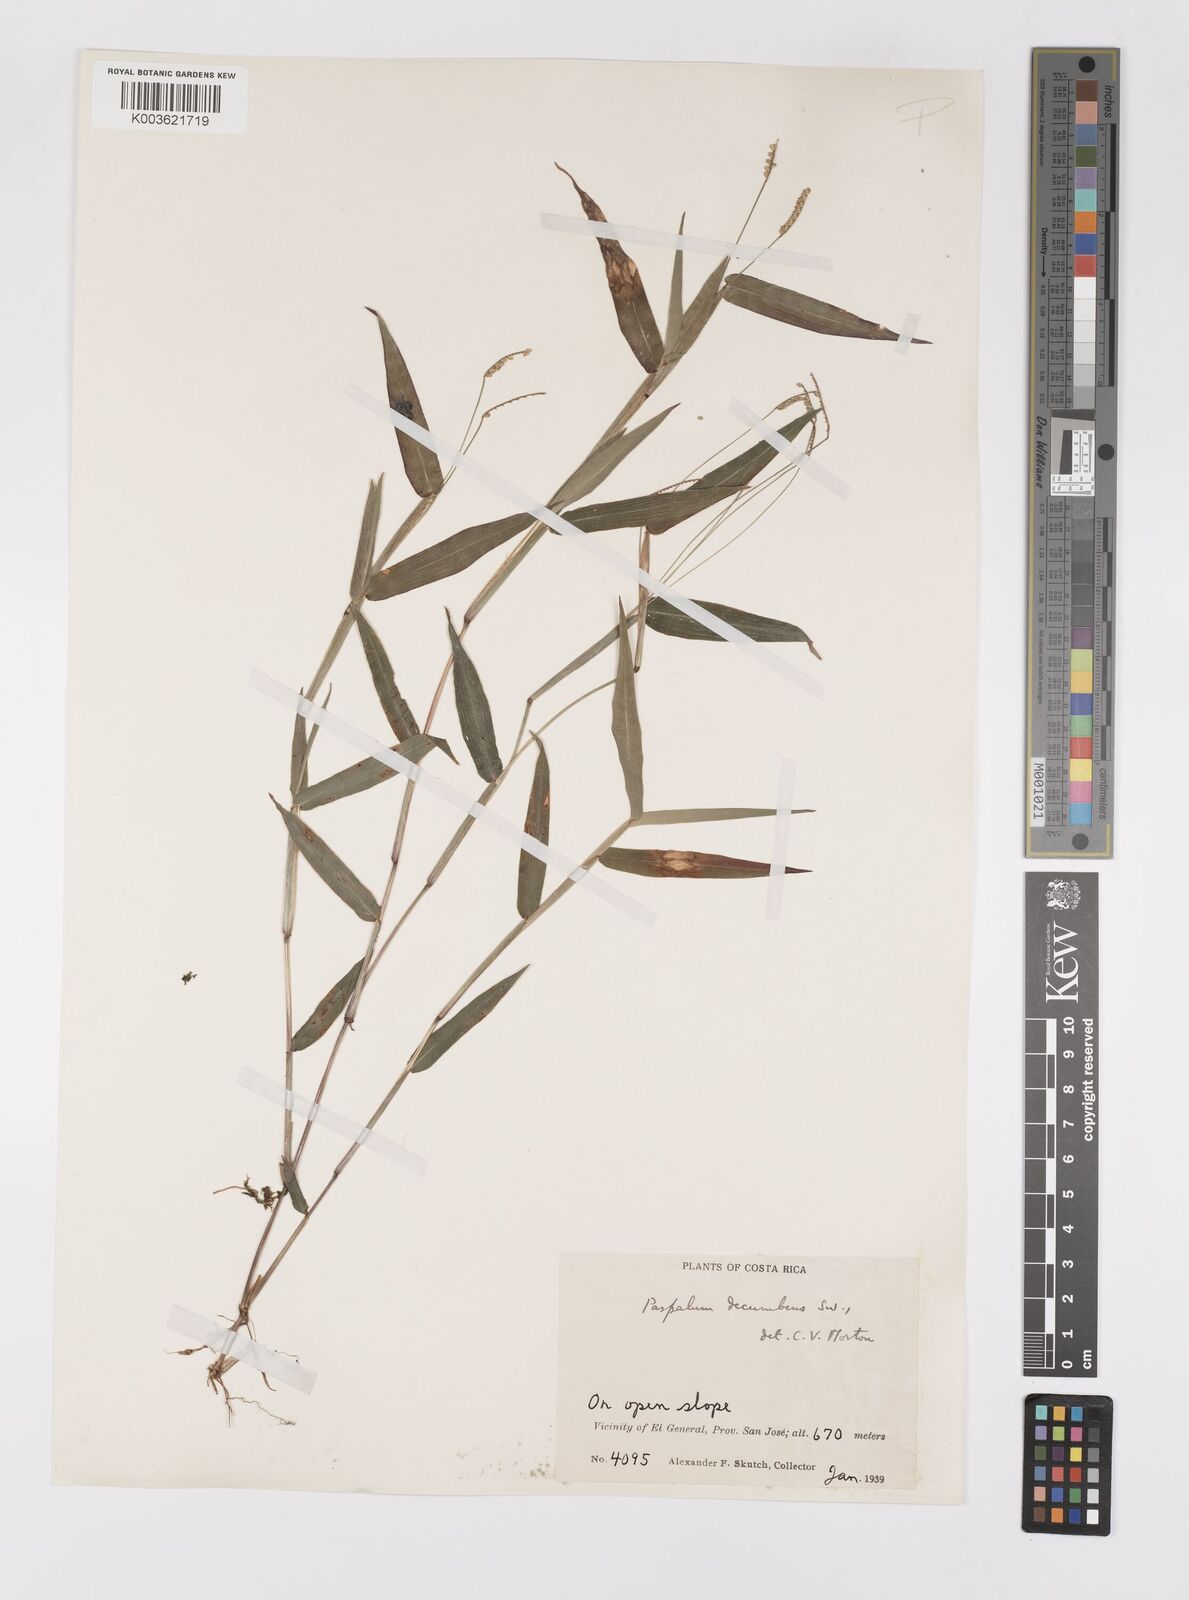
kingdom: Plantae
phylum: Tracheophyta
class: Liliopsida
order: Poales
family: Poaceae
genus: Paspalum
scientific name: Paspalum
